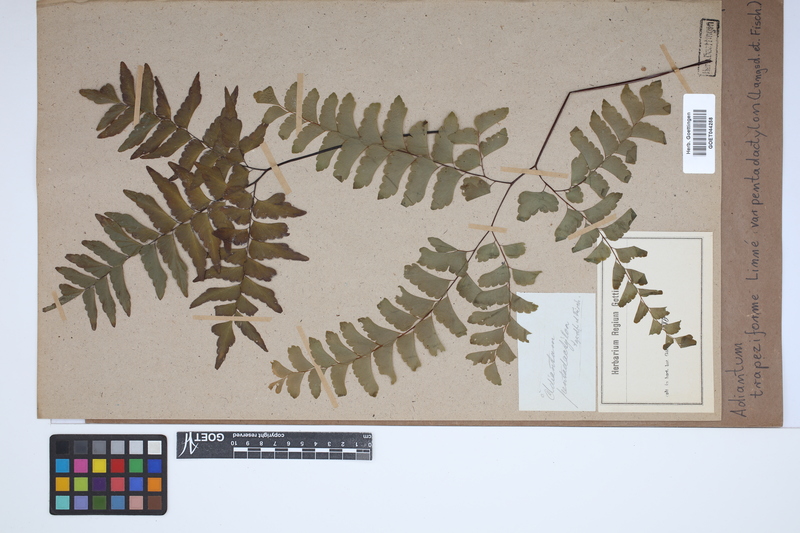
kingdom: Plantae
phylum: Tracheophyta
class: Polypodiopsida
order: Polypodiales
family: Pteridaceae
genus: Adiantum
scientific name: Adiantum pentadactylon
